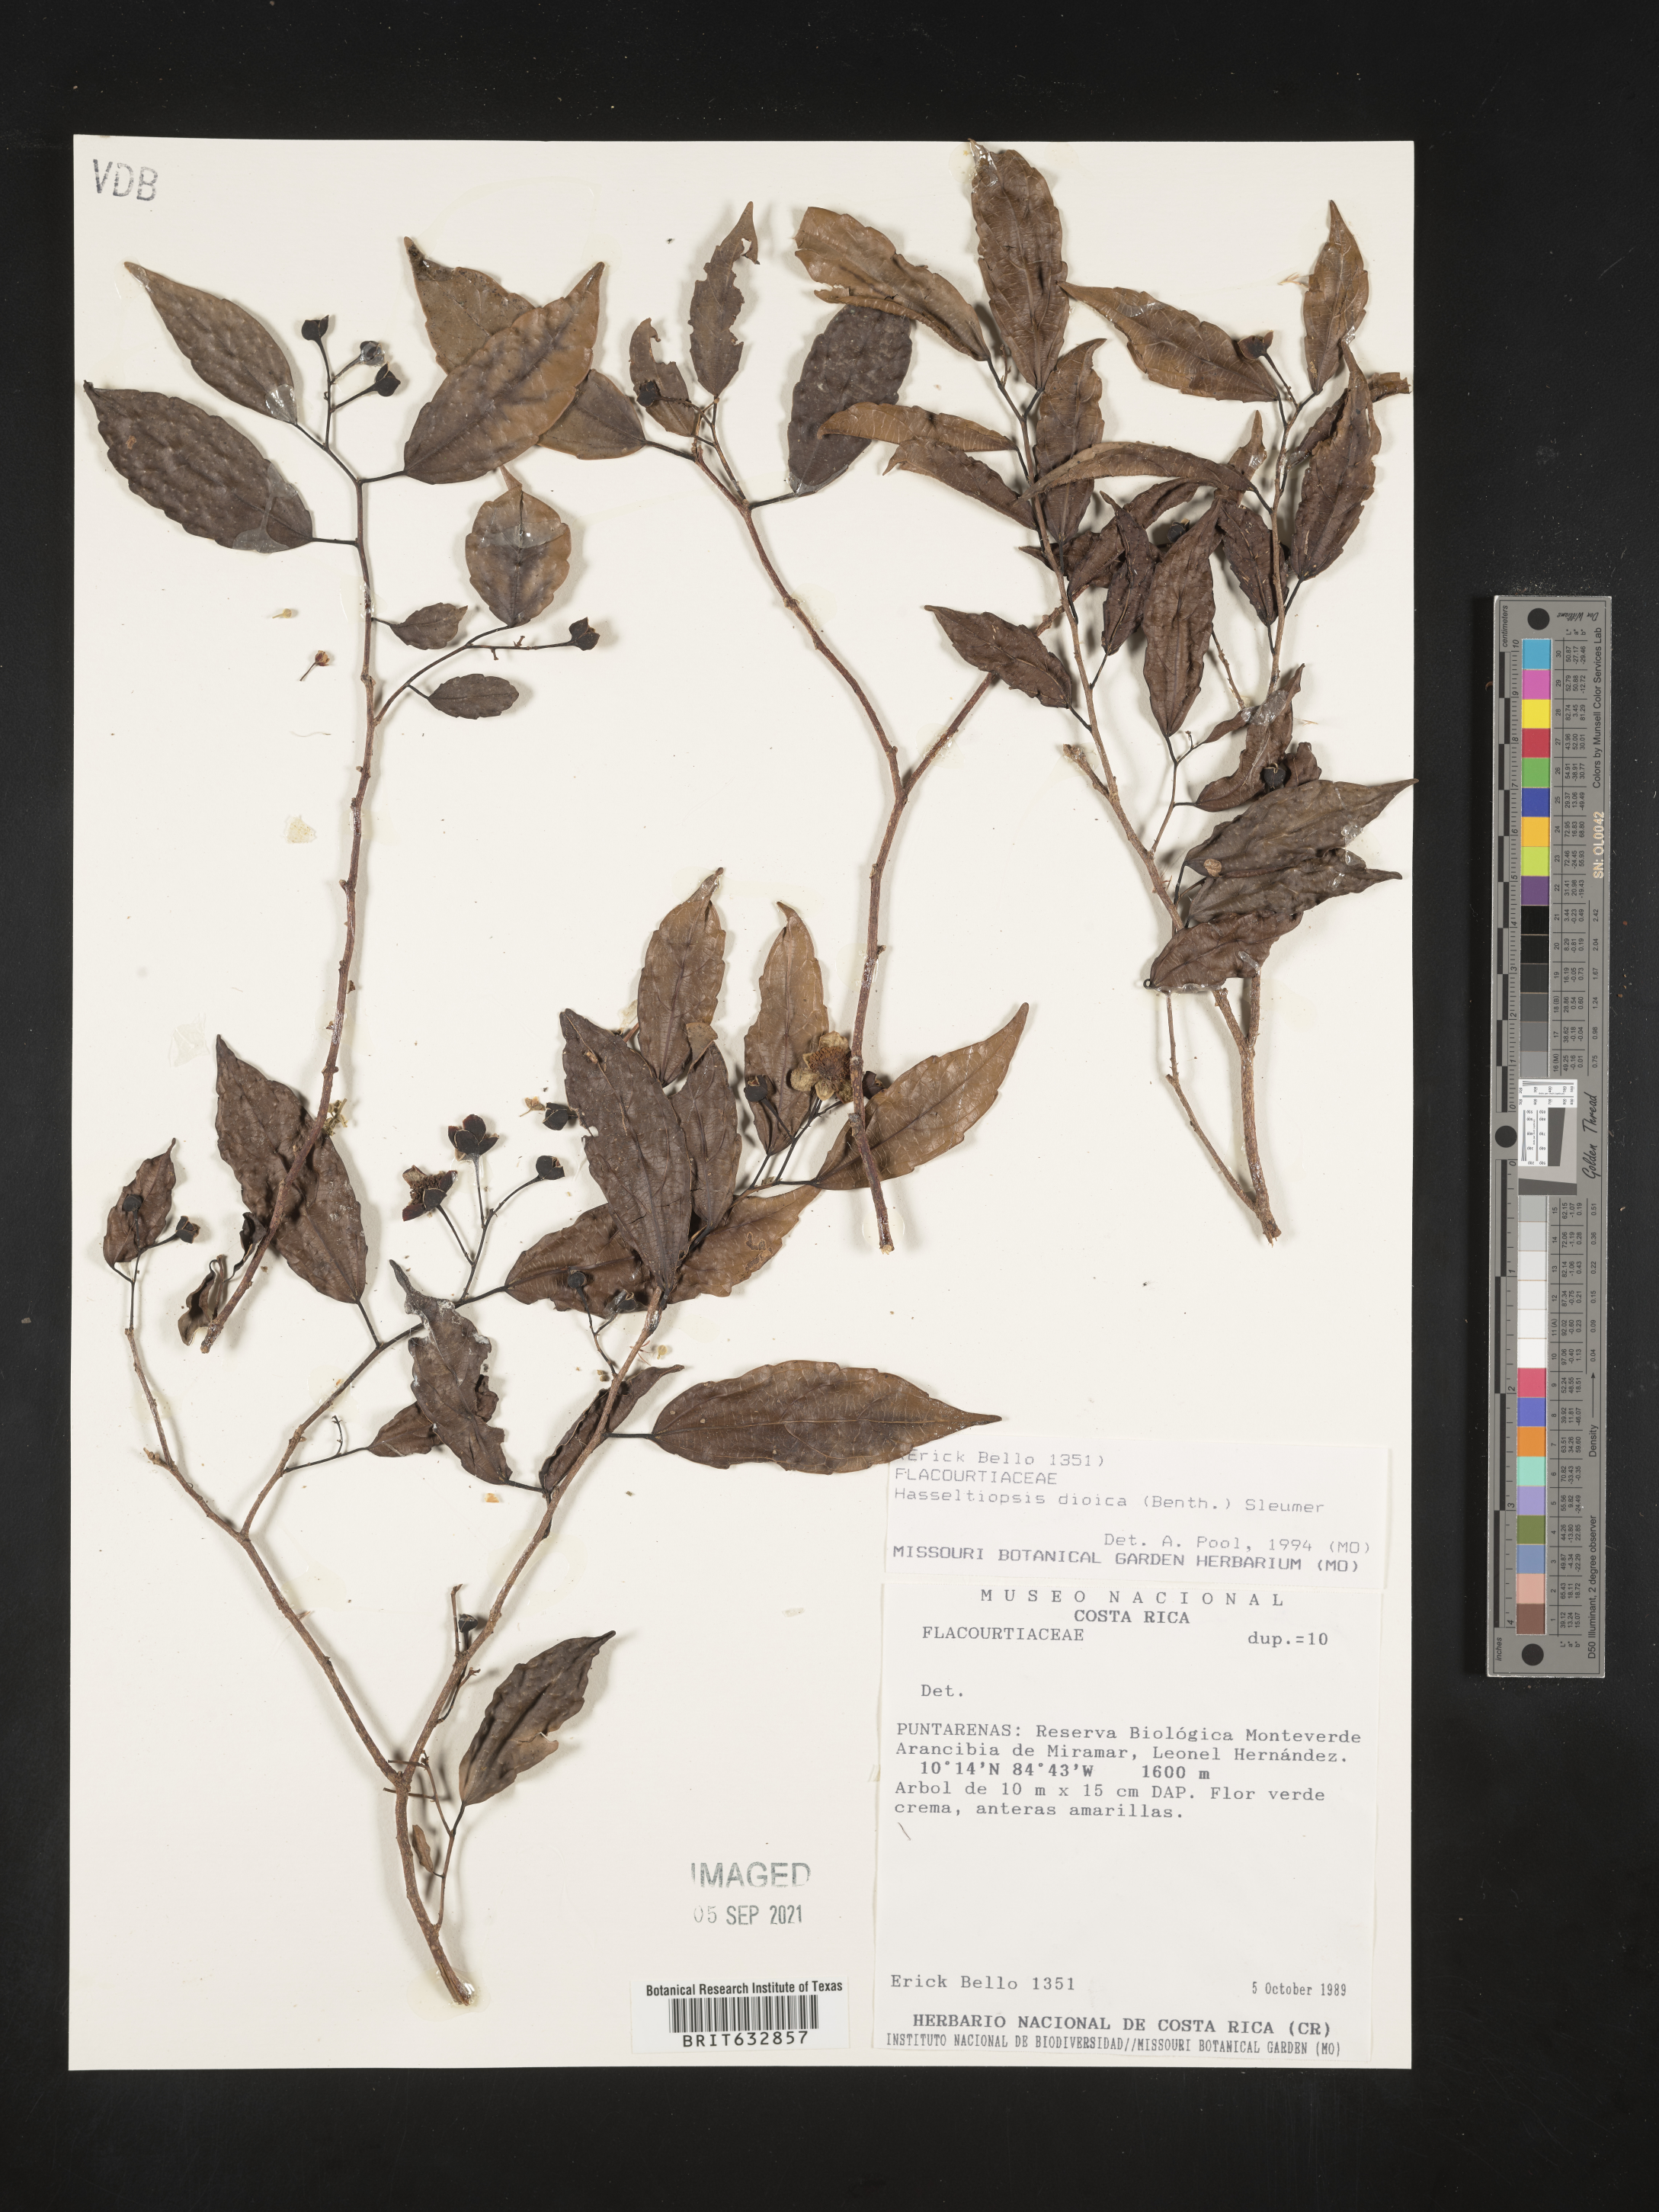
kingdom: Plantae
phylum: Tracheophyta
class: Magnoliopsida
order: Malpighiales
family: Salicaceae
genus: Hasseltia
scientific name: Hasseltia
